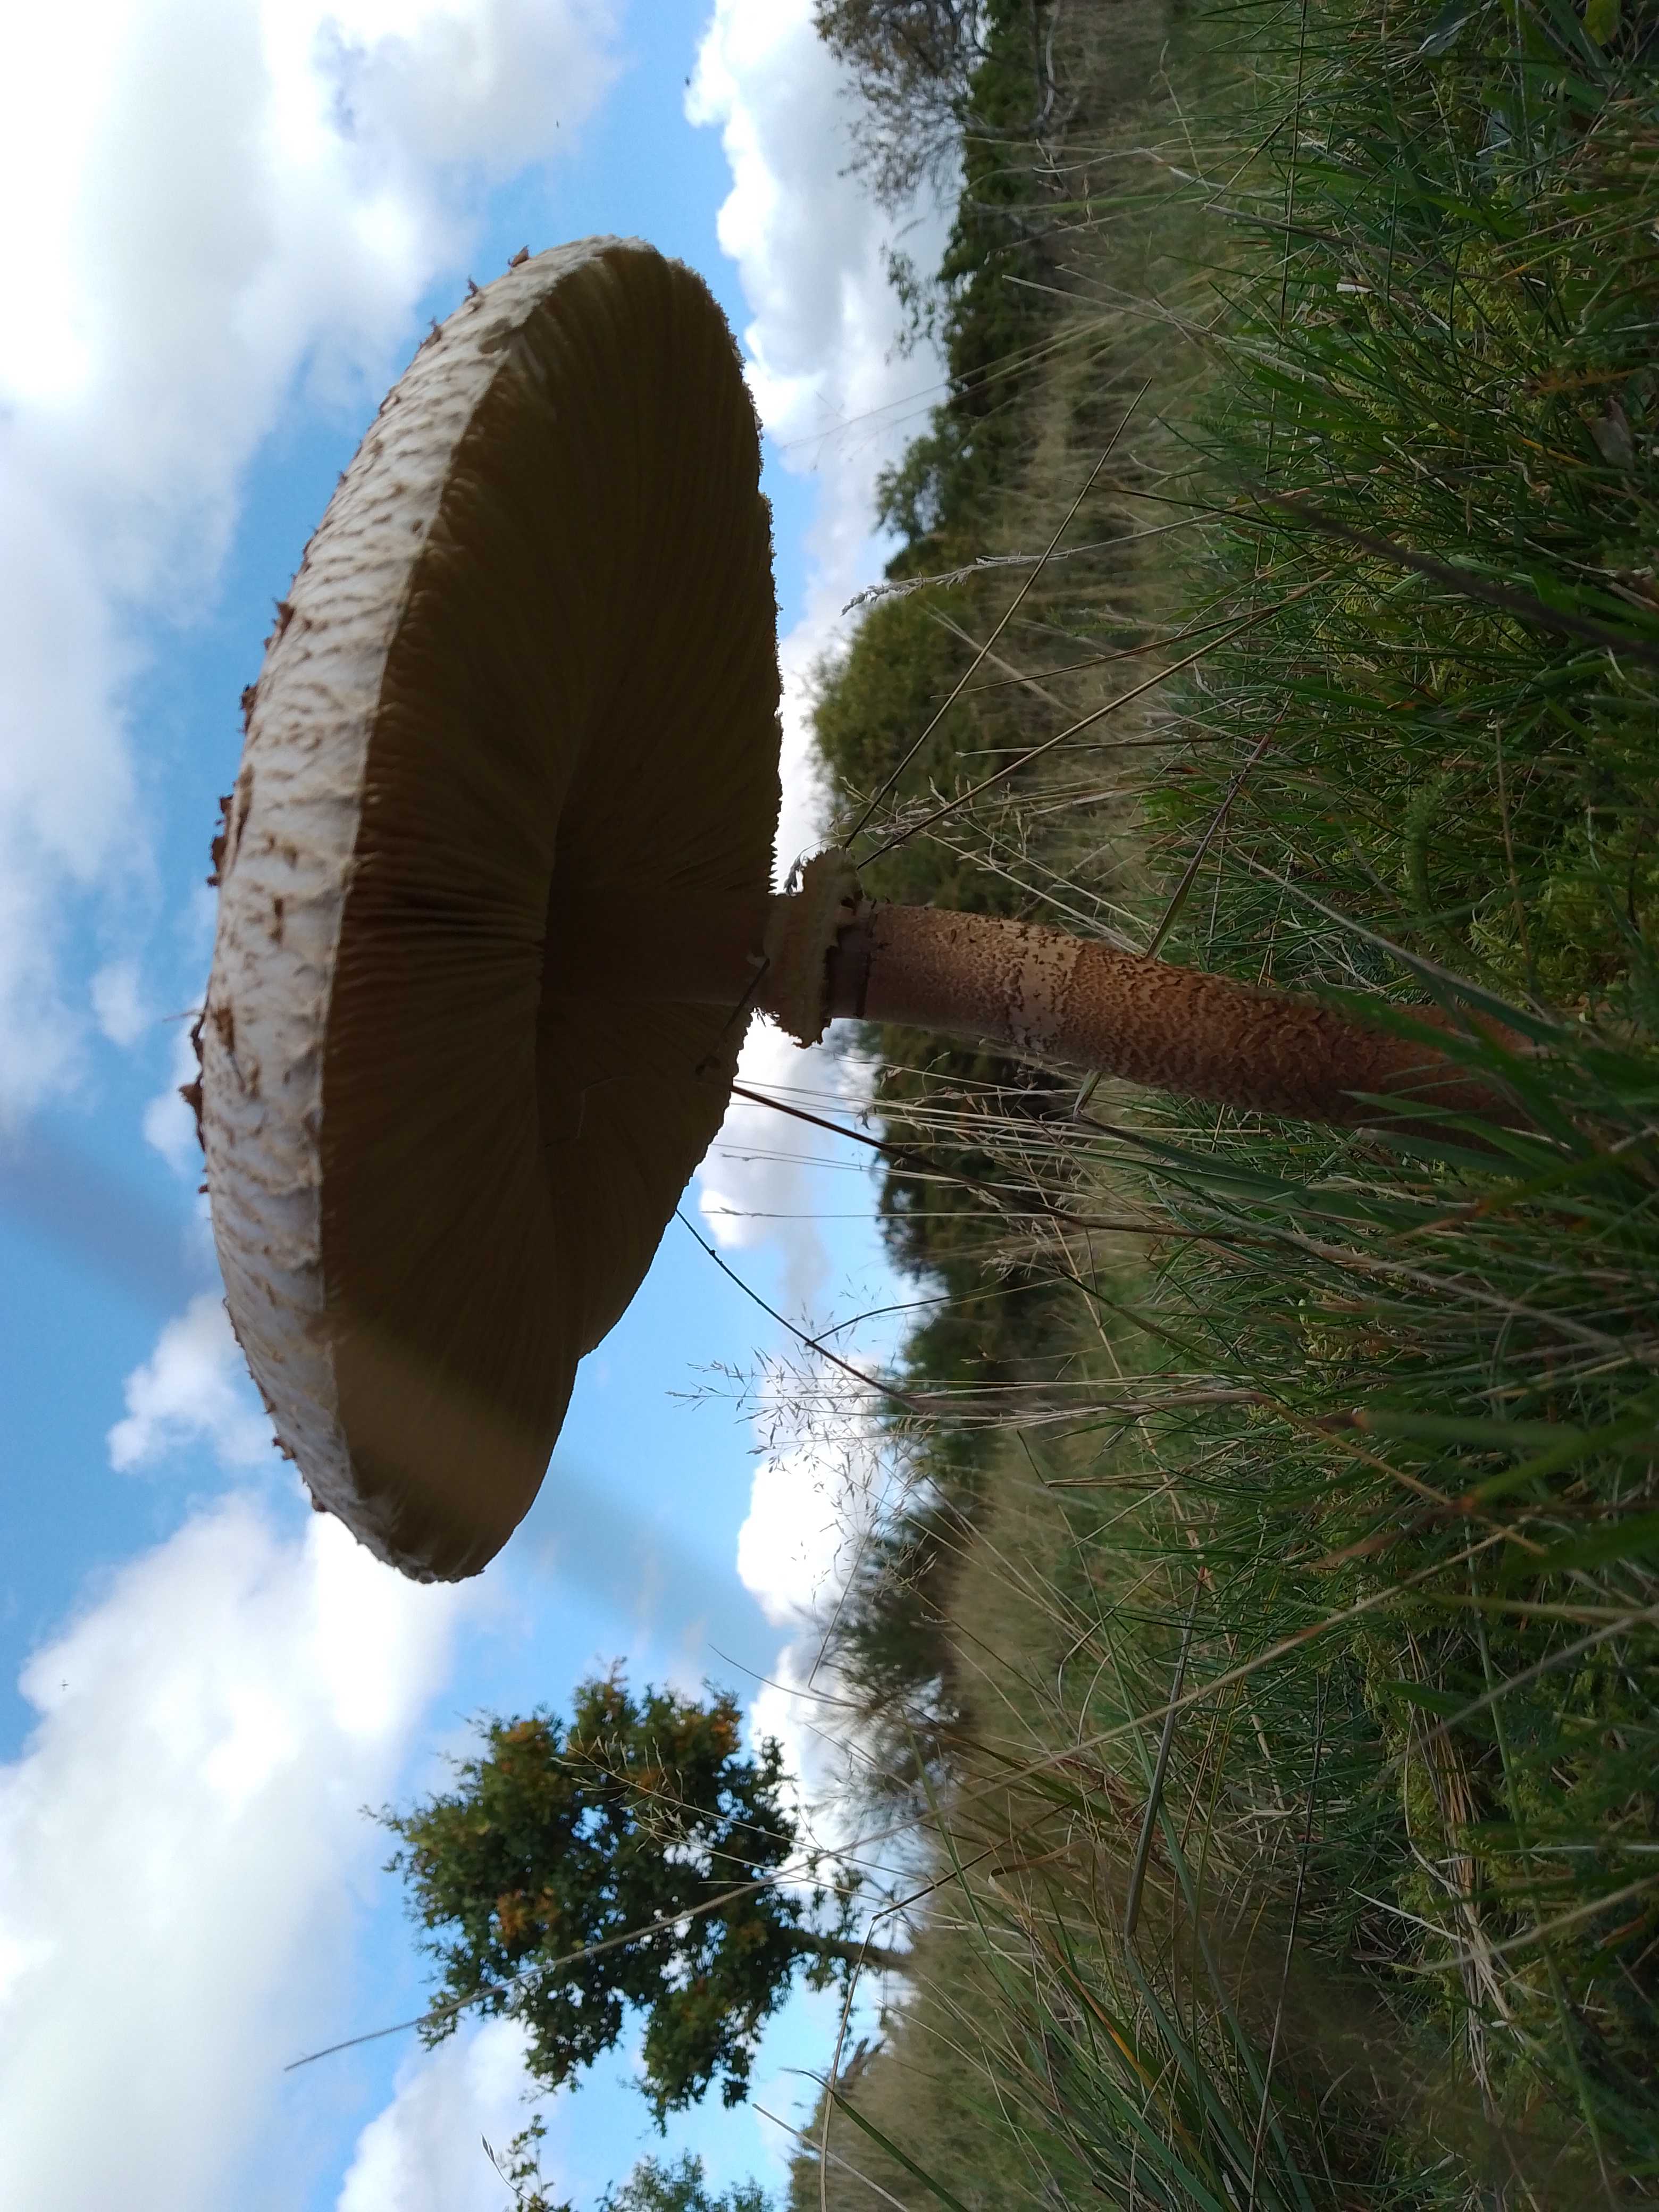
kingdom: Fungi
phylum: Basidiomycota
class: Agaricomycetes
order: Agaricales
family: Agaricaceae
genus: Macrolepiota
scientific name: Macrolepiota procera
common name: stor kæmpeparasolhat
